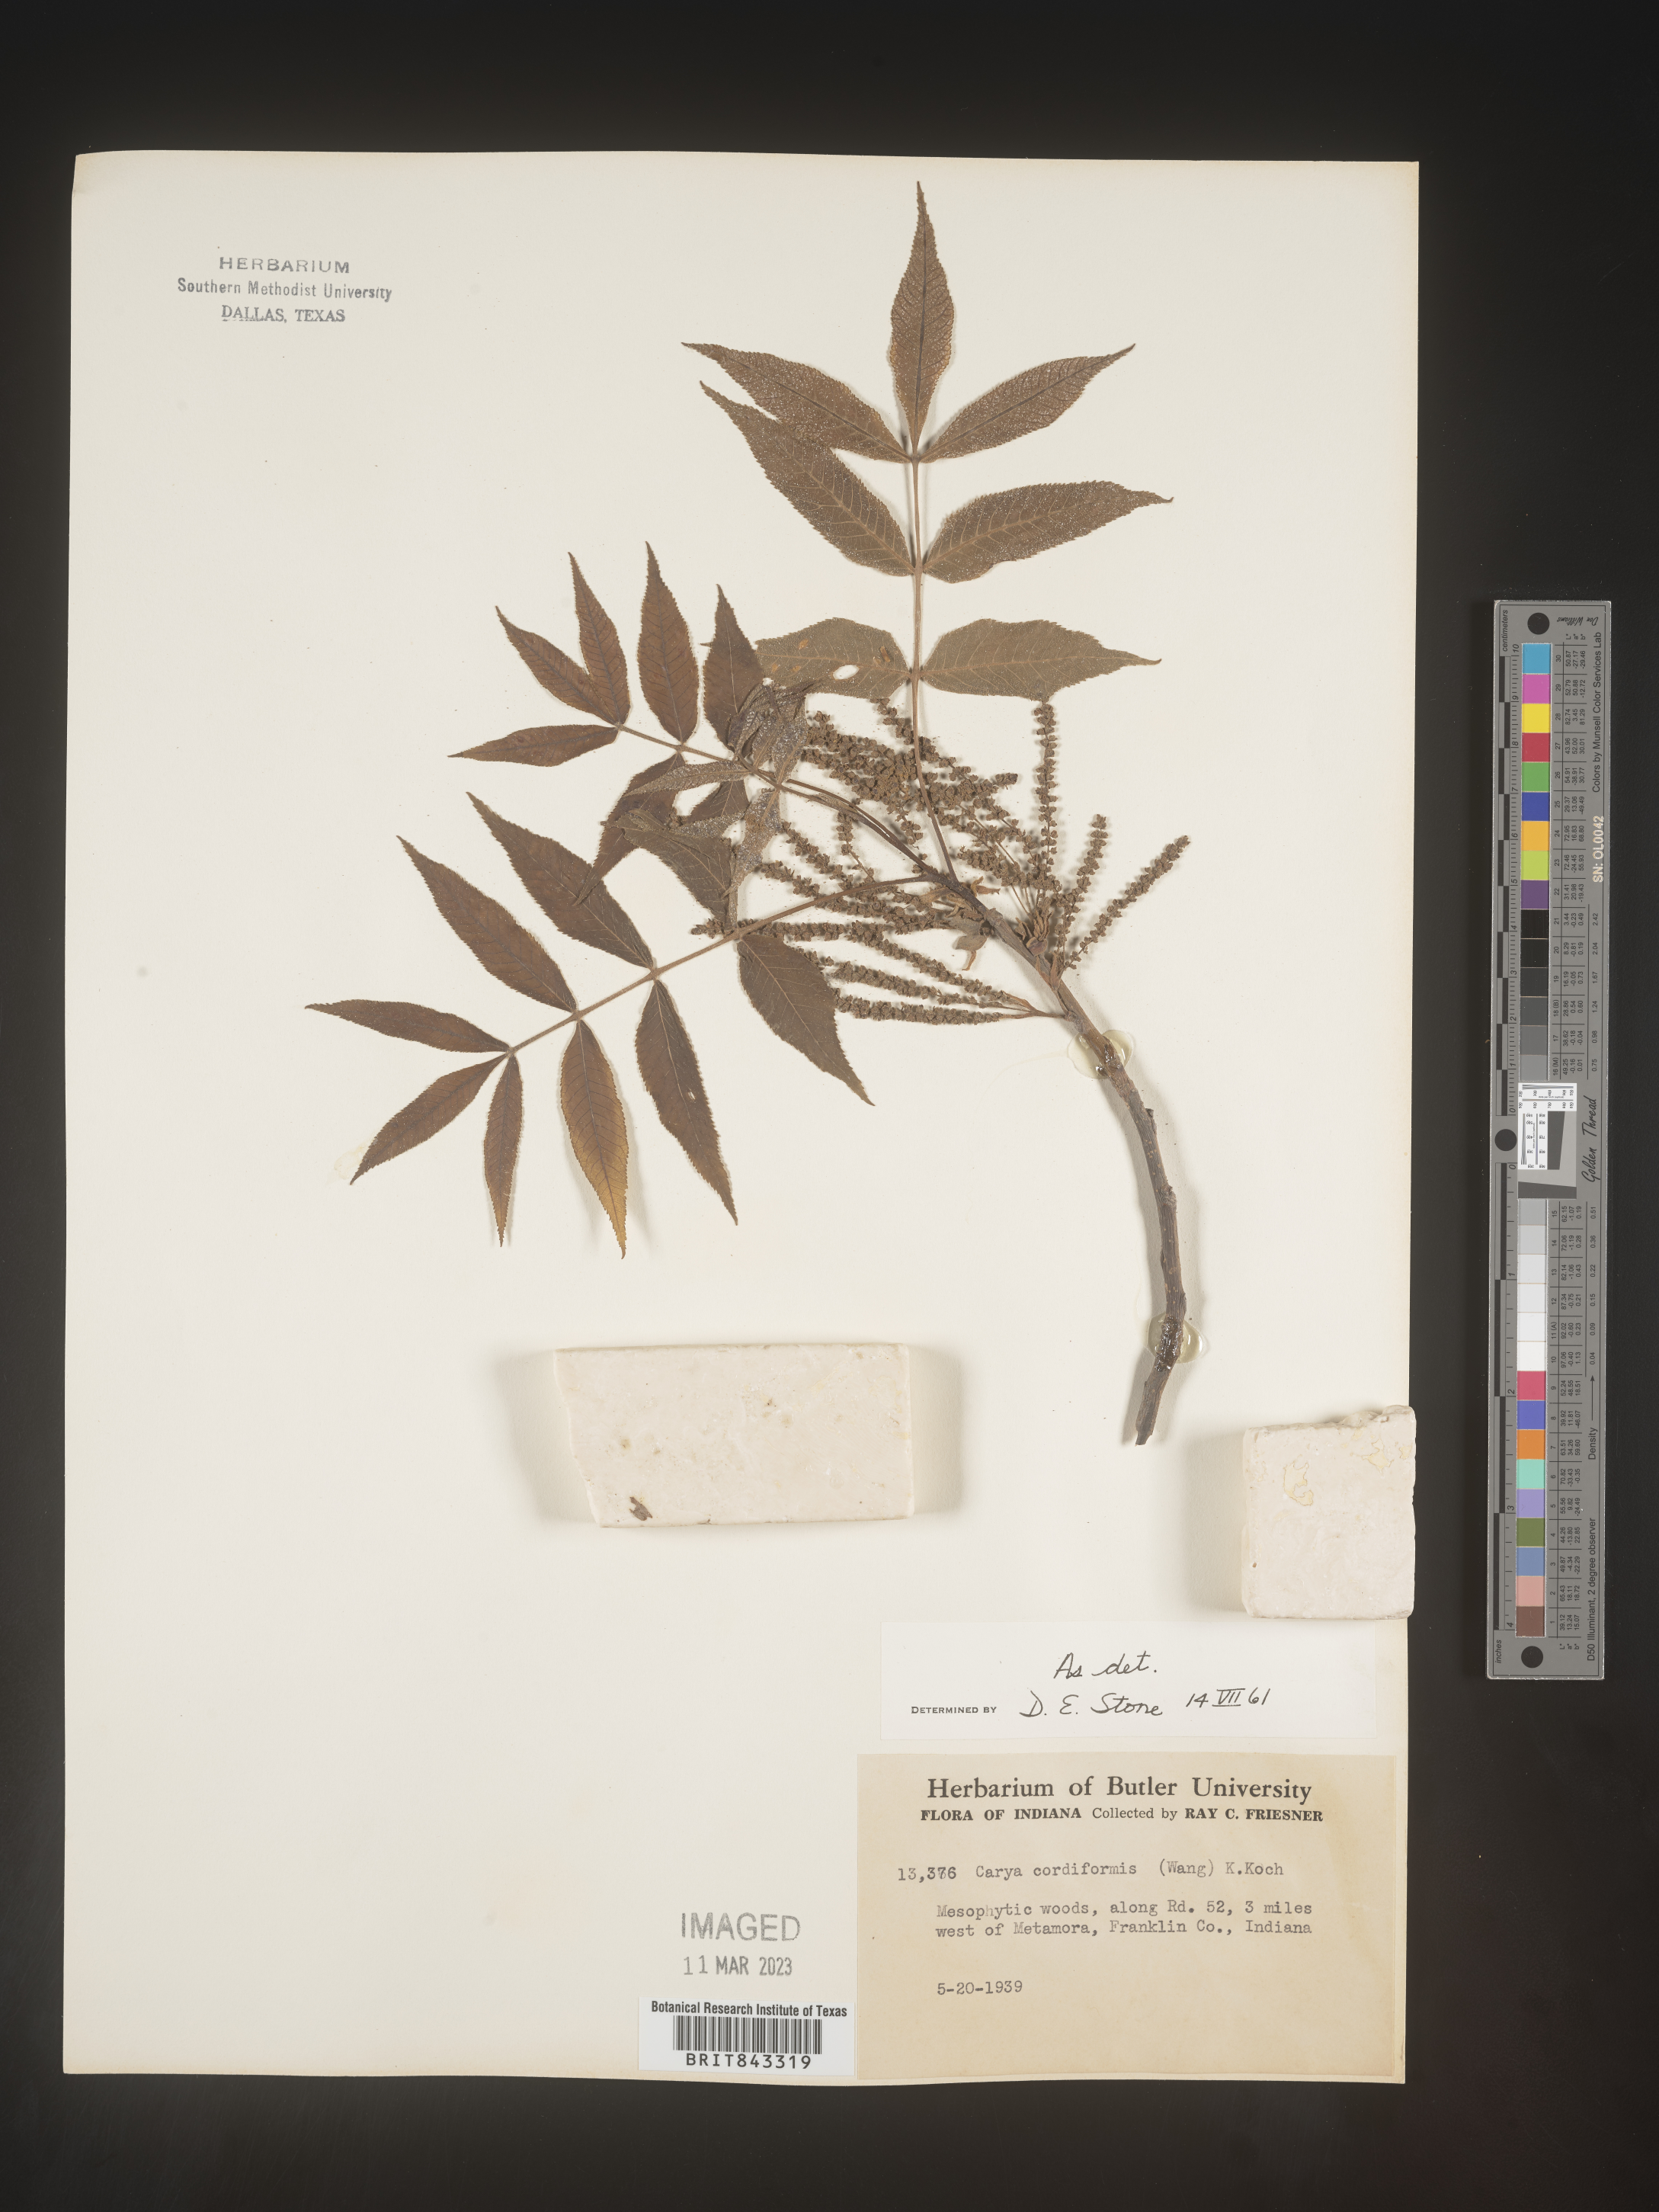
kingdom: Plantae
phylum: Tracheophyta
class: Magnoliopsida
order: Fagales
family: Juglandaceae
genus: Carya
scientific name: Carya cordiformis
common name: Bitternut hickory
